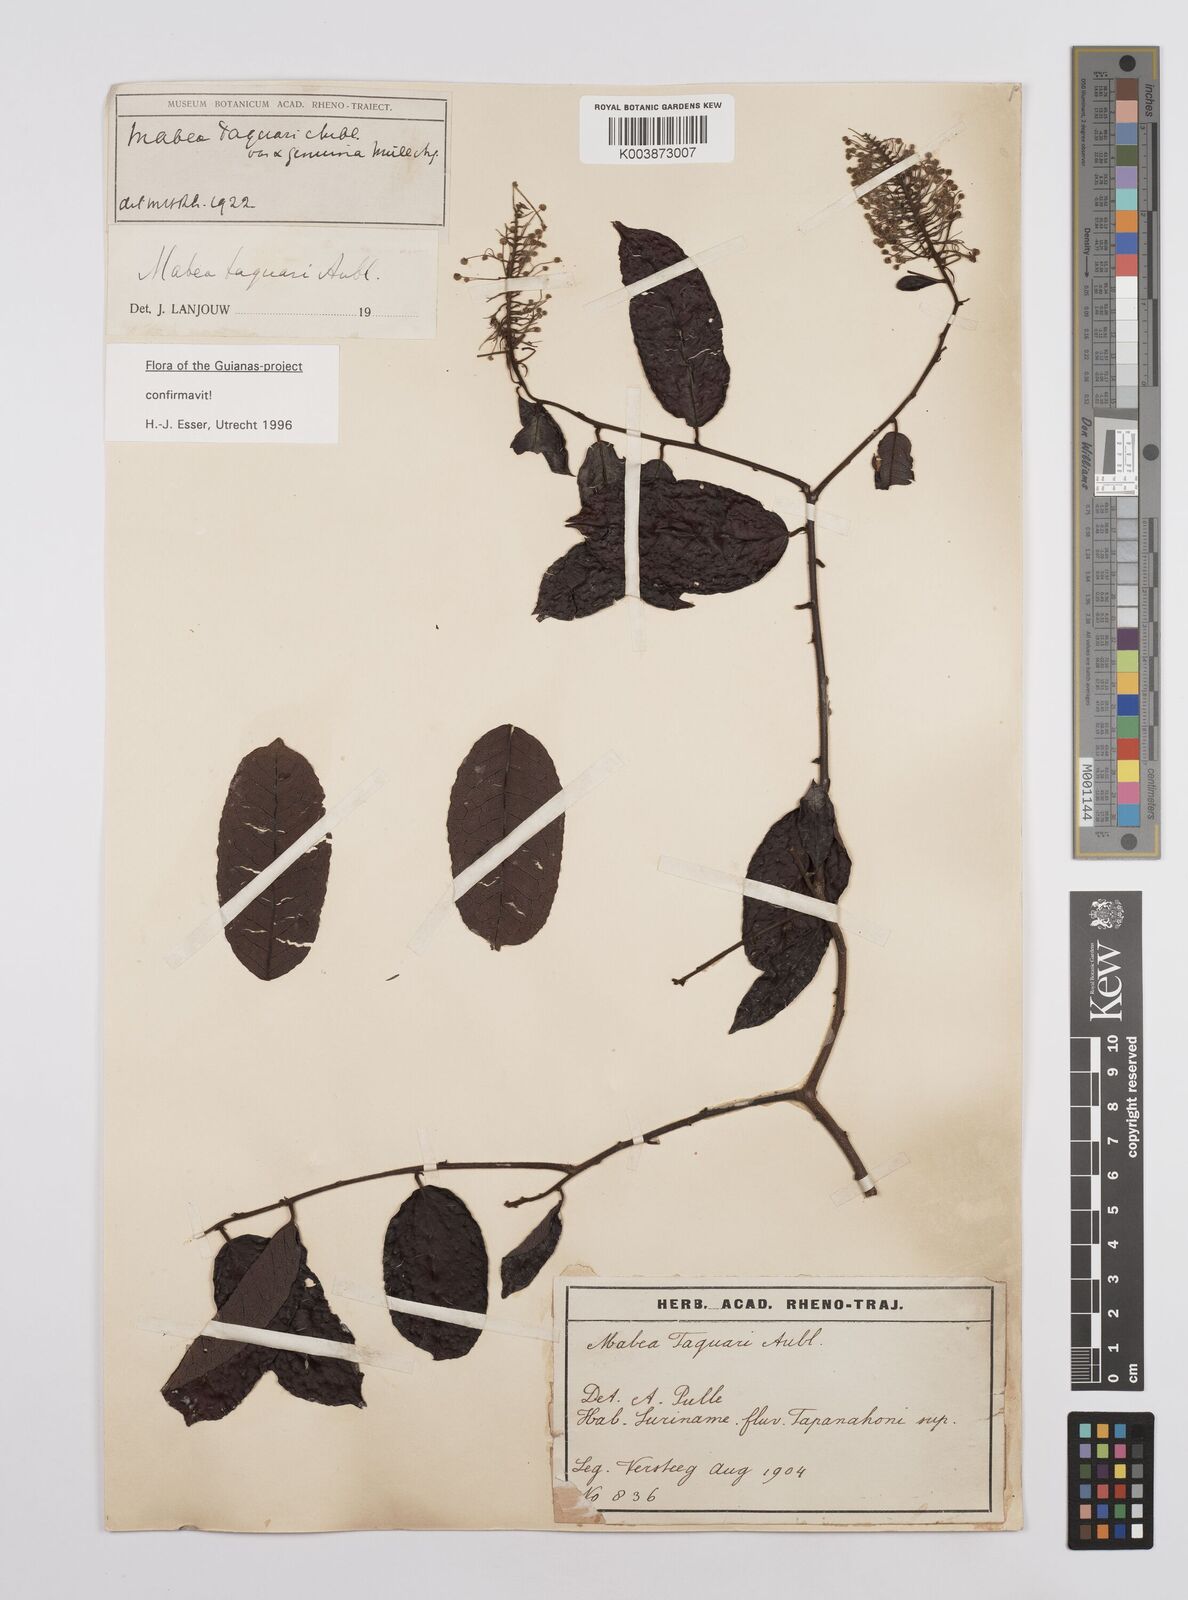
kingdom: Plantae
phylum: Tracheophyta
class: Magnoliopsida
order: Malpighiales
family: Euphorbiaceae
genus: Mabea
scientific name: Mabea taquari
